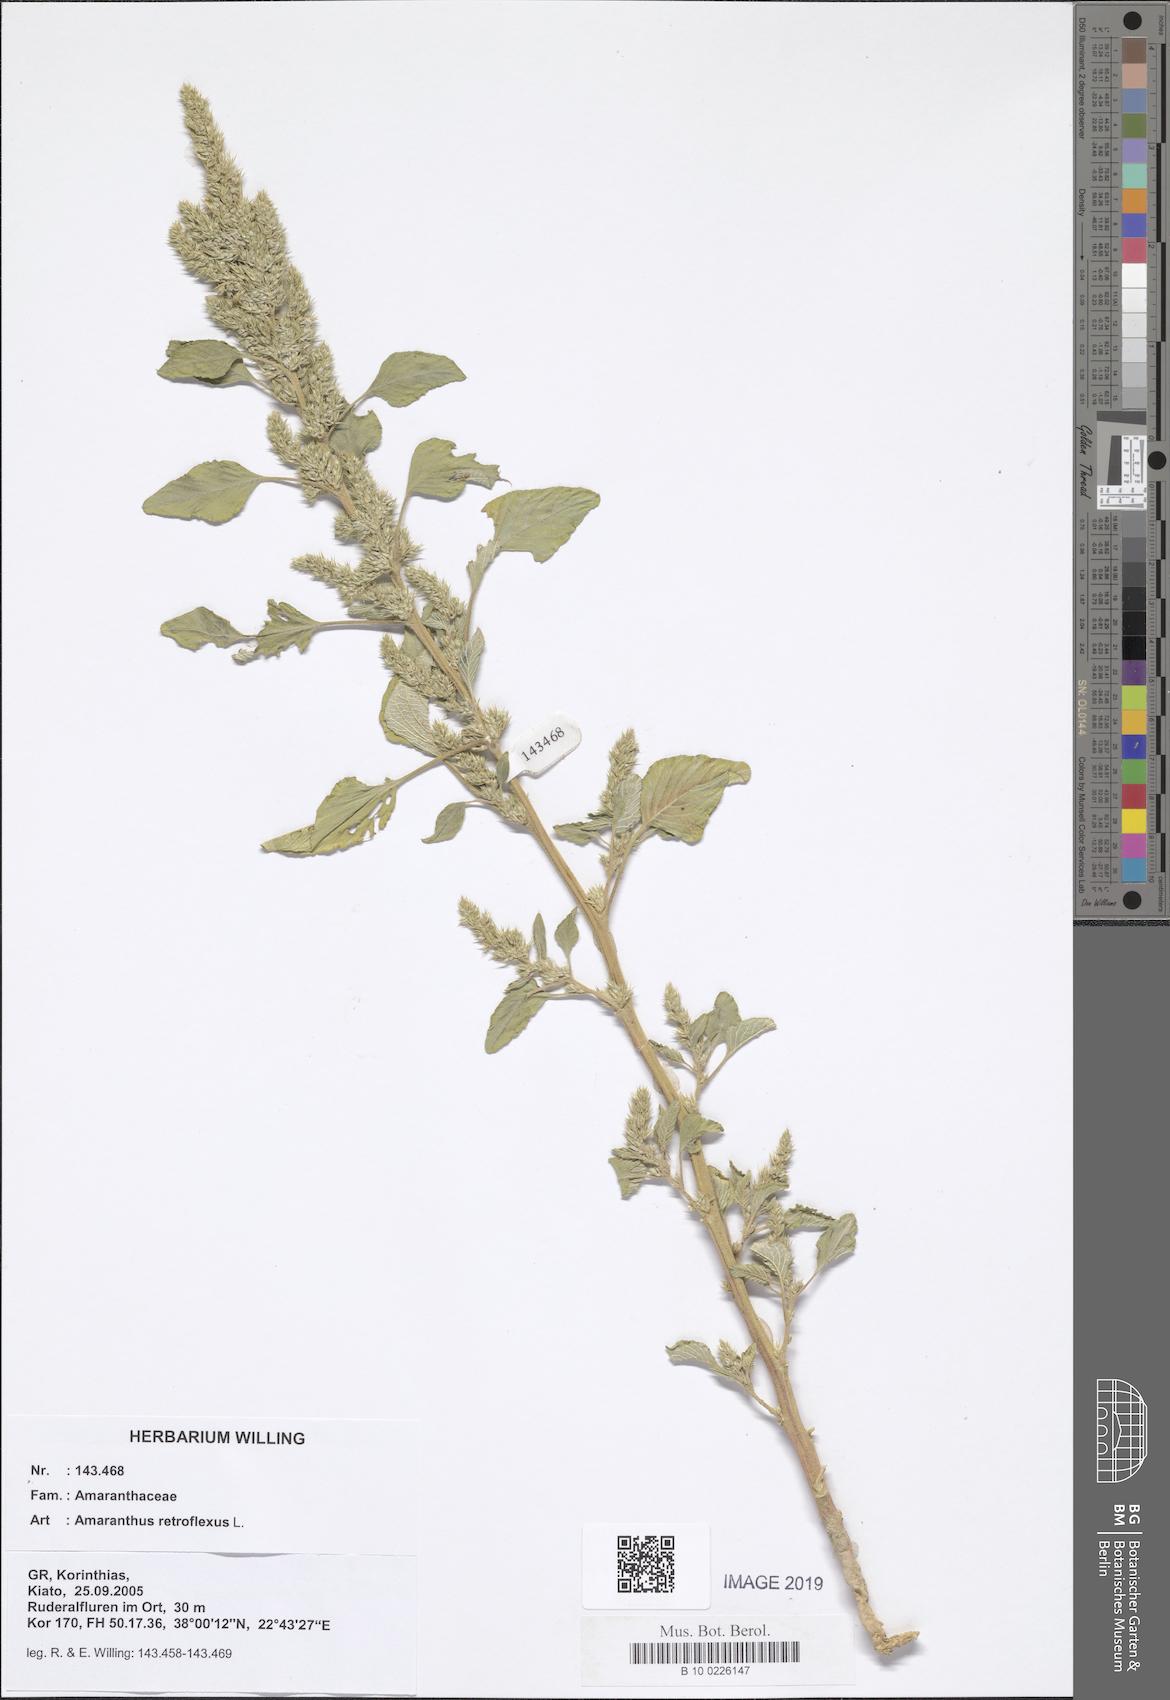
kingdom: Plantae
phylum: Tracheophyta
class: Magnoliopsida
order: Caryophyllales
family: Amaranthaceae
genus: Amaranthus
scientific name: Amaranthus retroflexus
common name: Redroot amaranth
